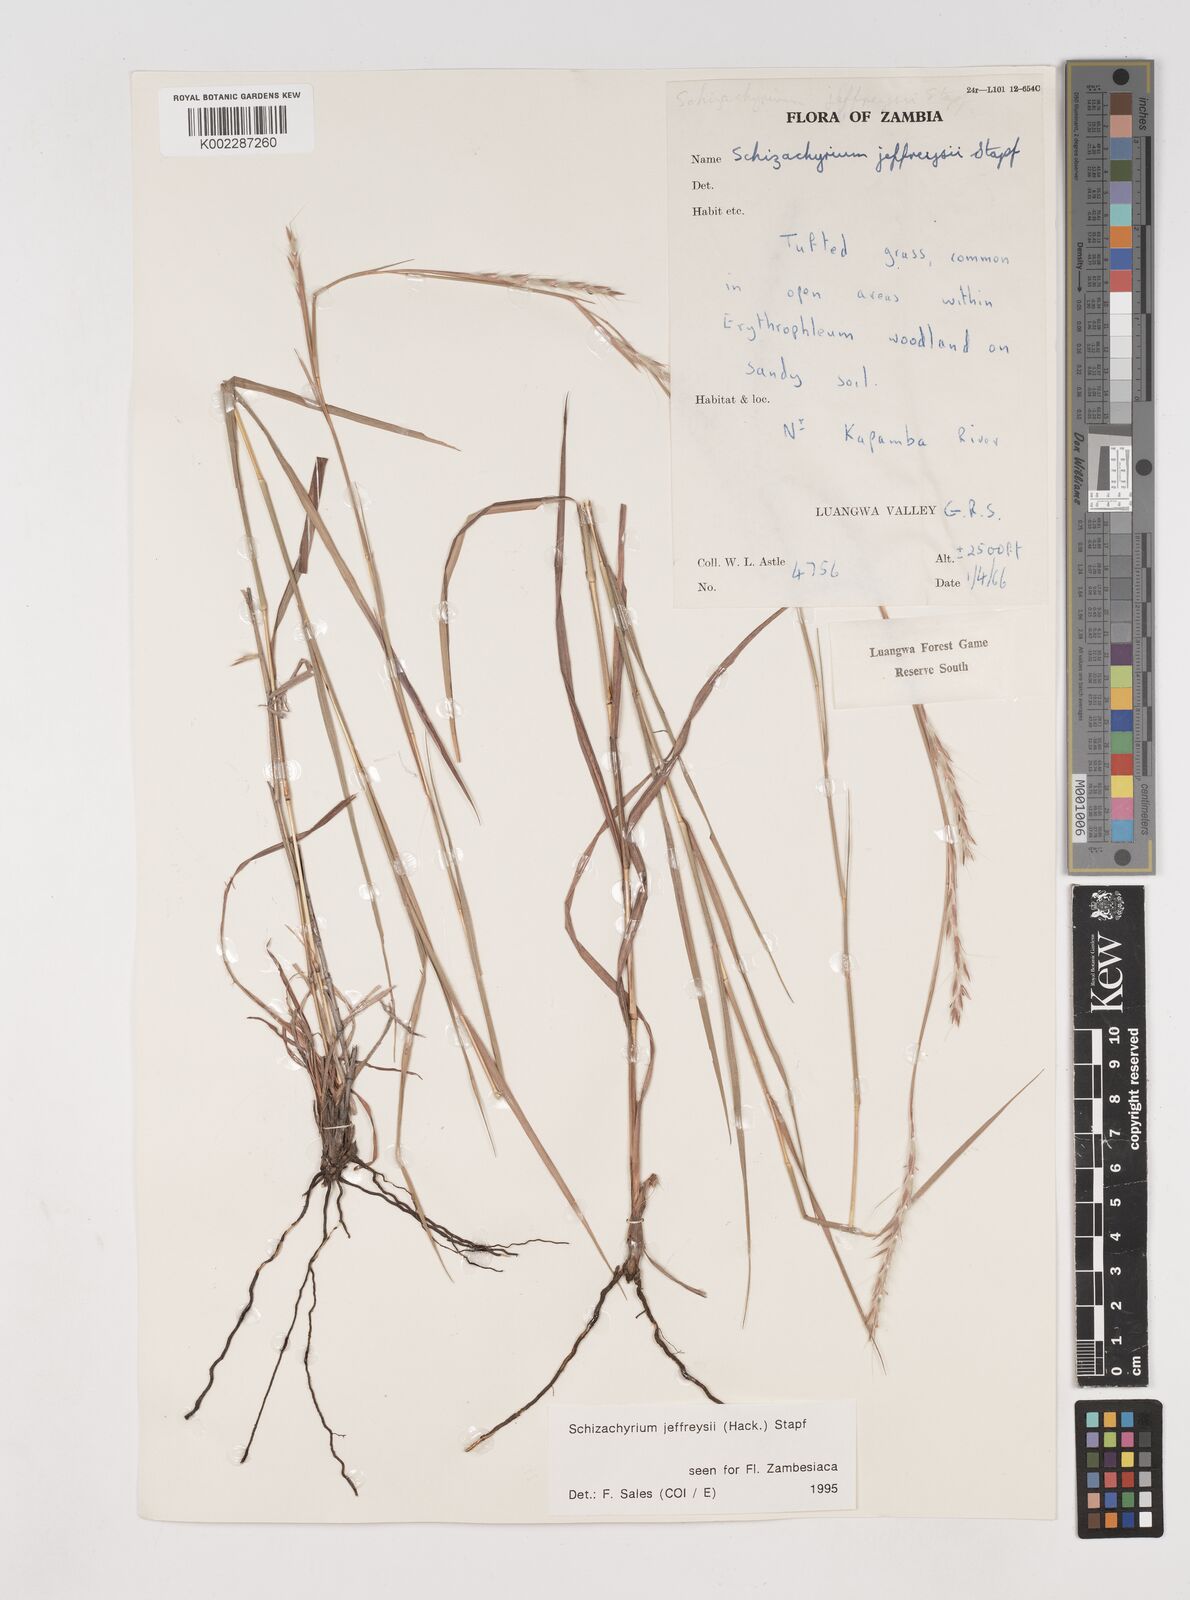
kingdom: Plantae
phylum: Tracheophyta
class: Liliopsida
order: Poales
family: Poaceae
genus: Schizachyrium
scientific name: Schizachyrium jeffreysii
